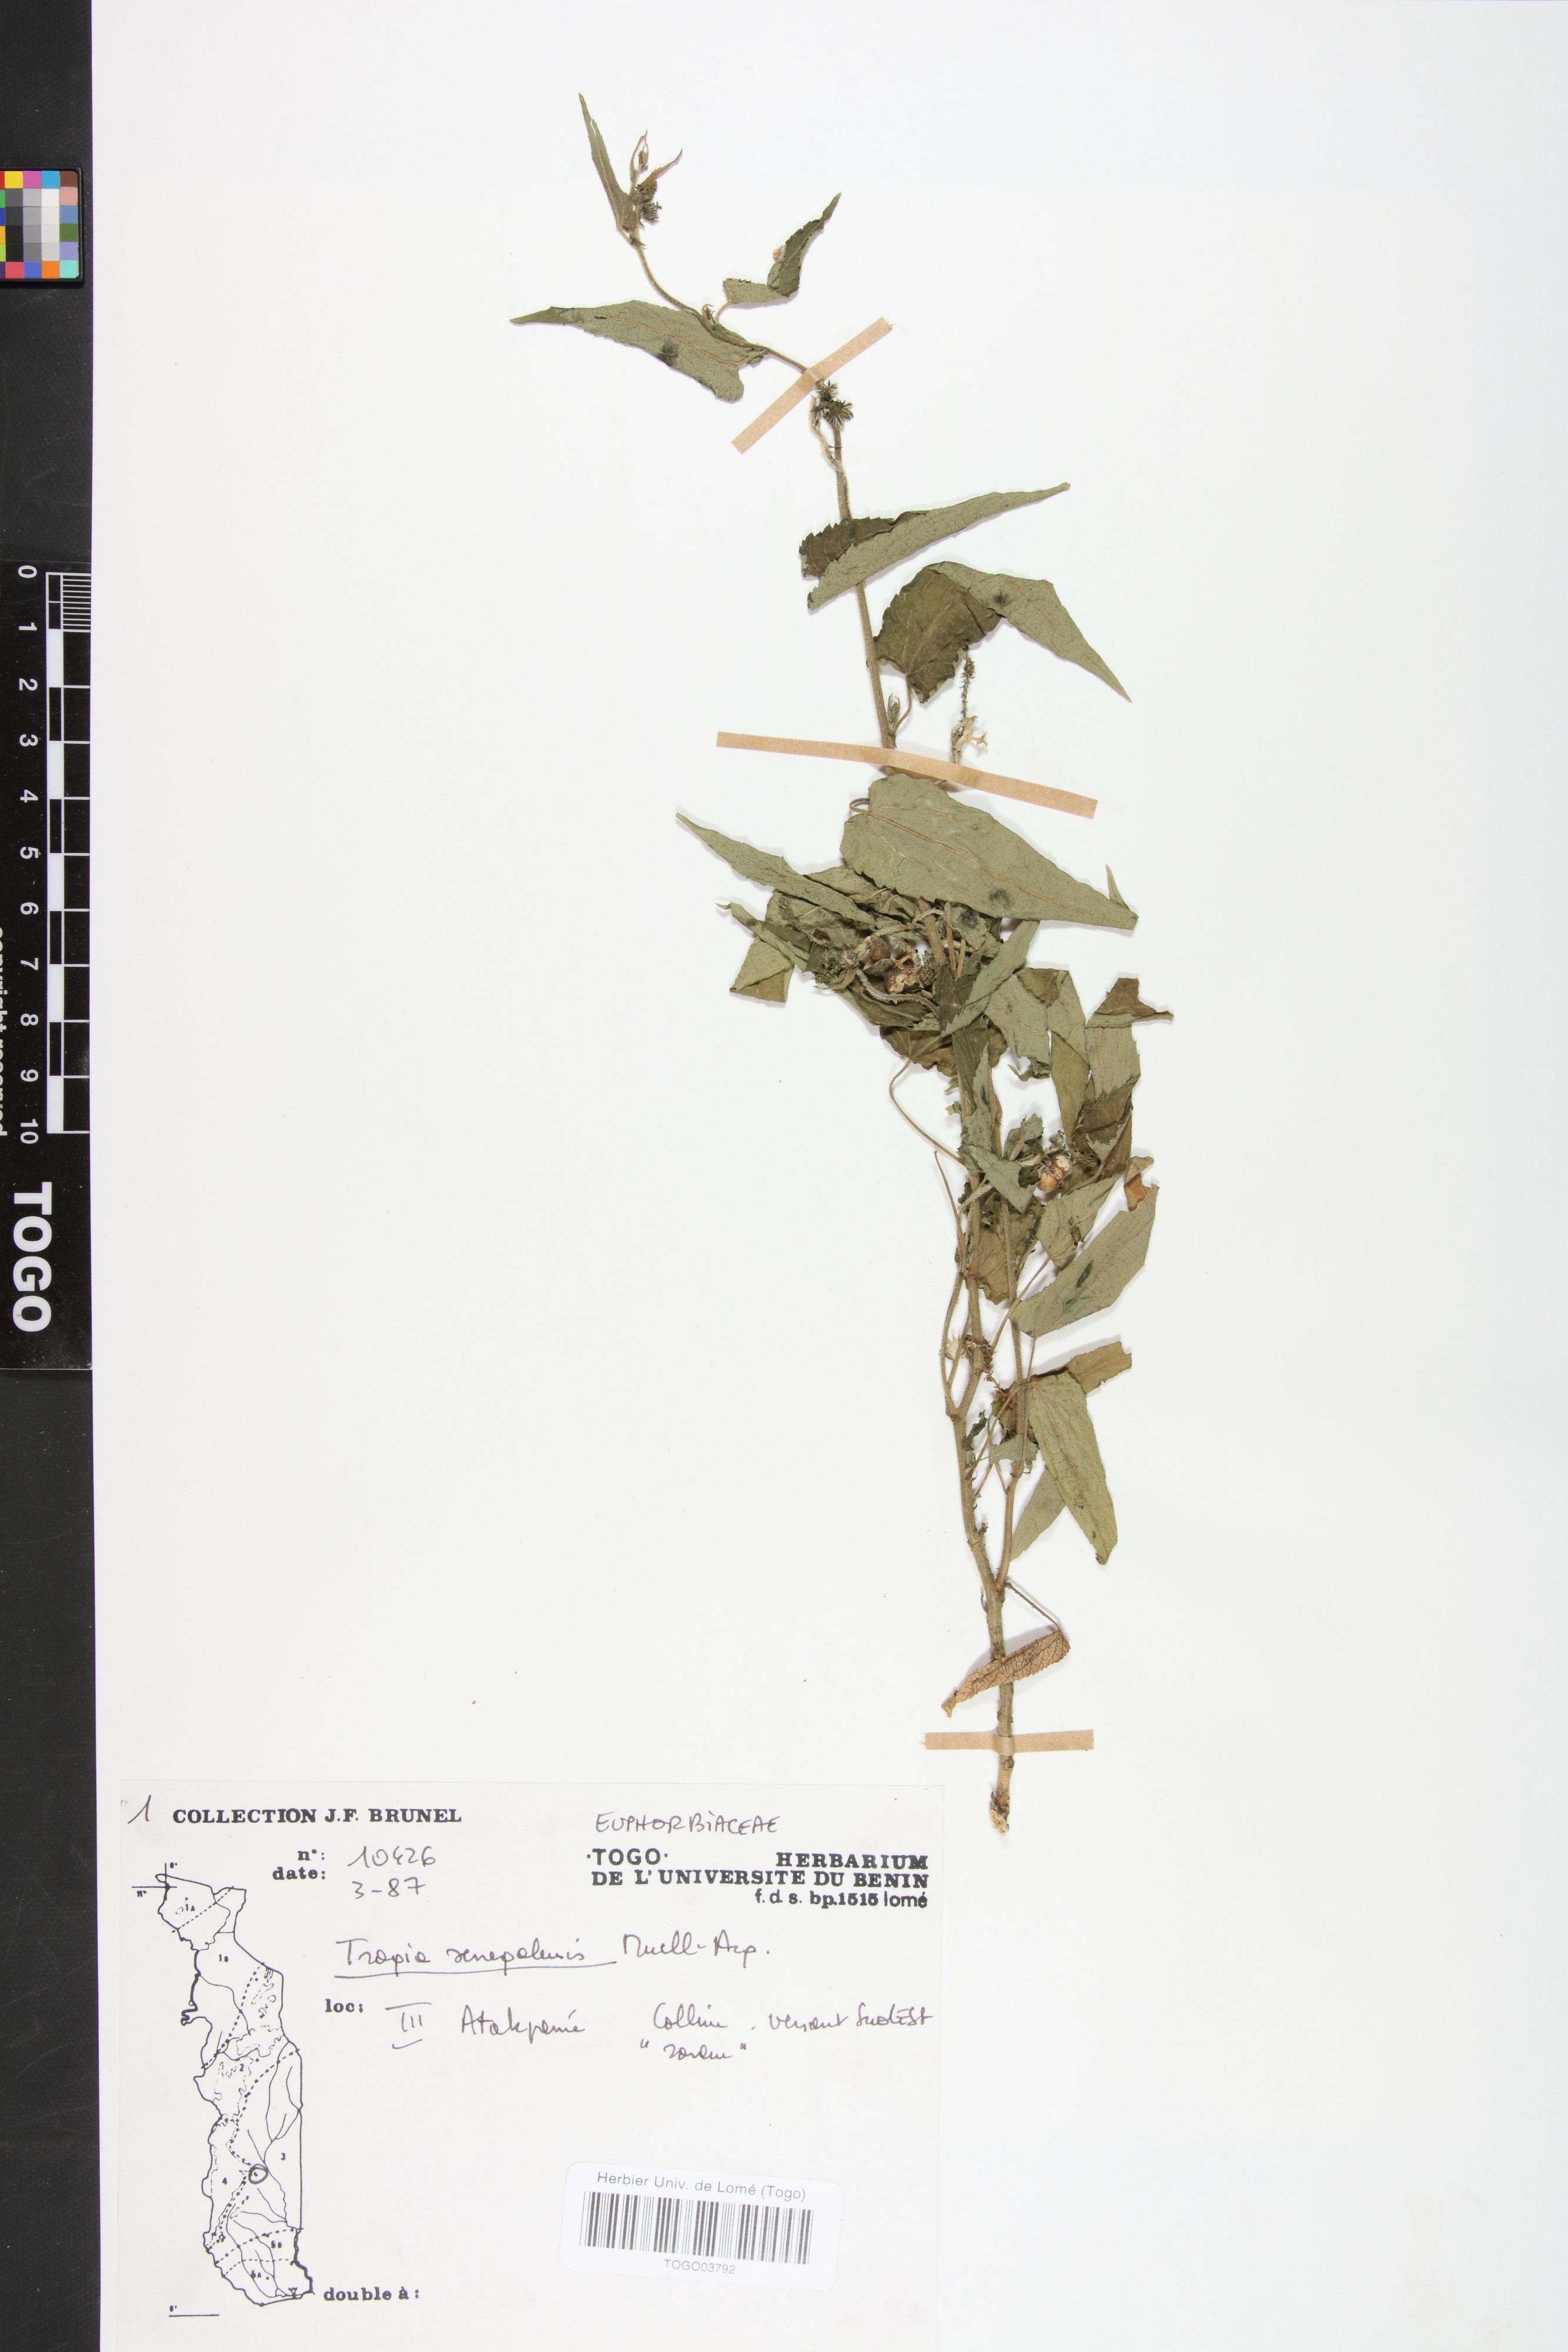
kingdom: Plantae
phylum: Tracheophyta
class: Magnoliopsida
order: Malpighiales
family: Euphorbiaceae
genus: Tragia
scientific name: Tragia senegalensis
